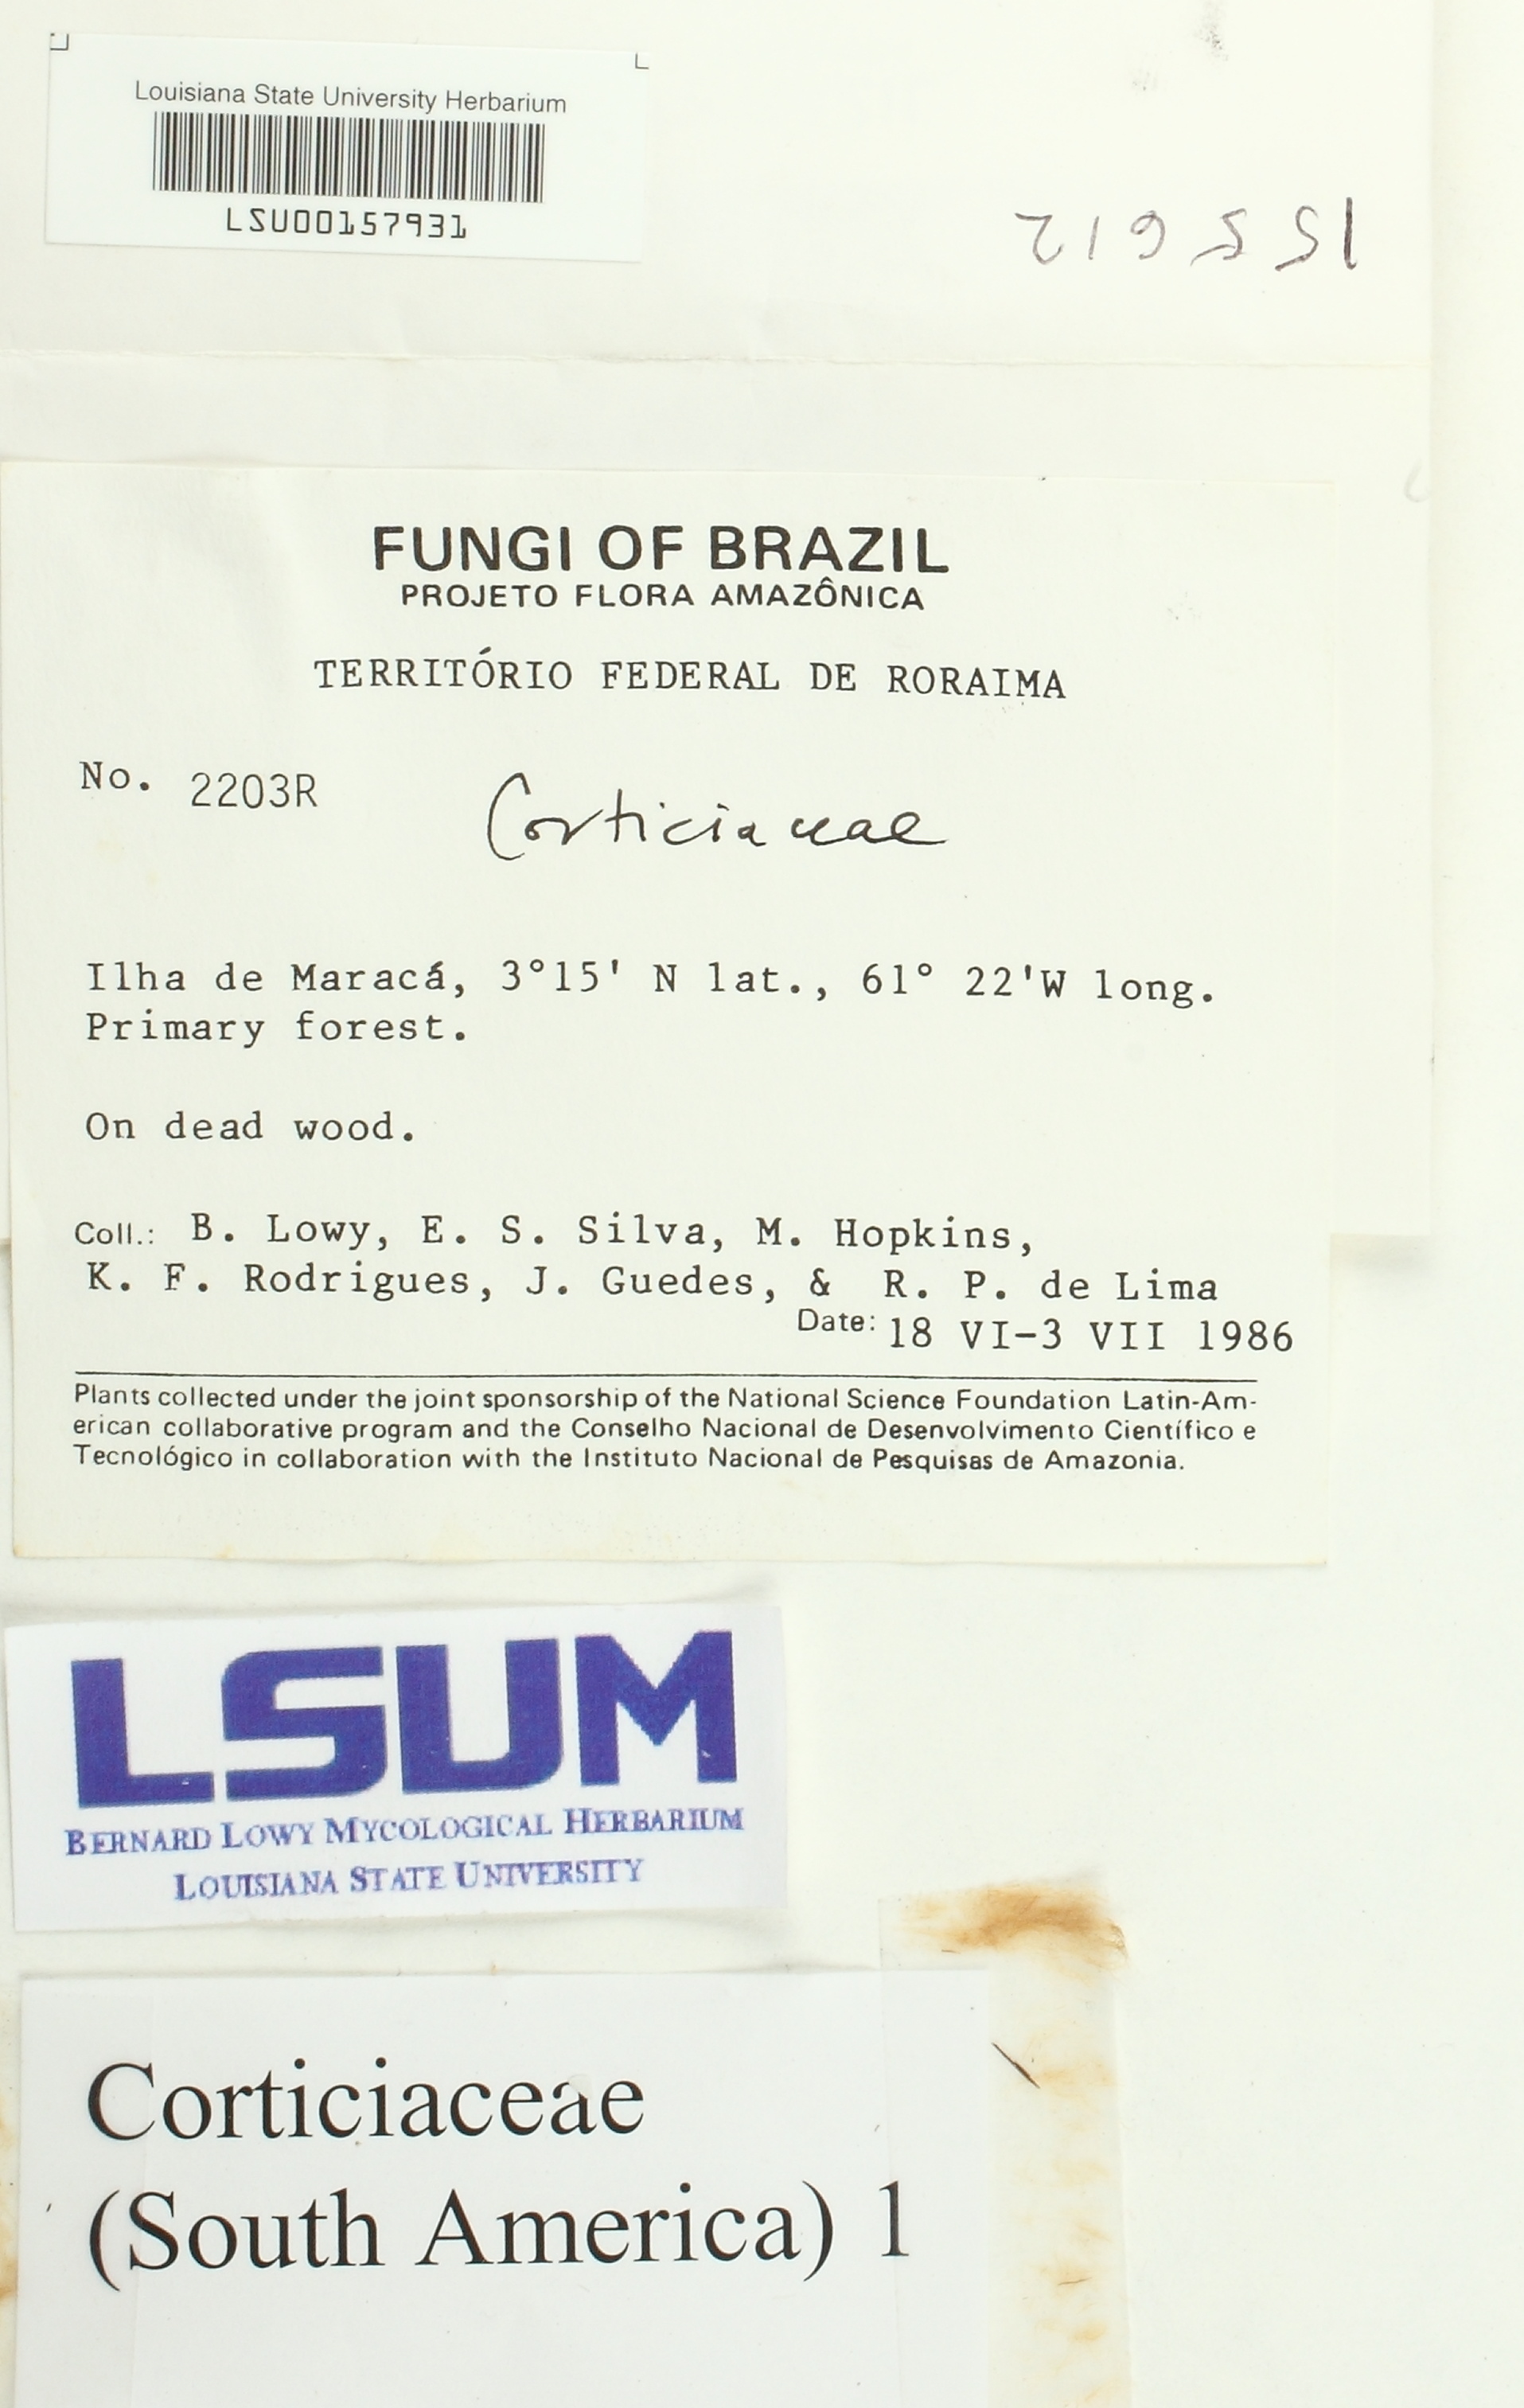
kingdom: Fungi
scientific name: Fungi
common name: Fungi
